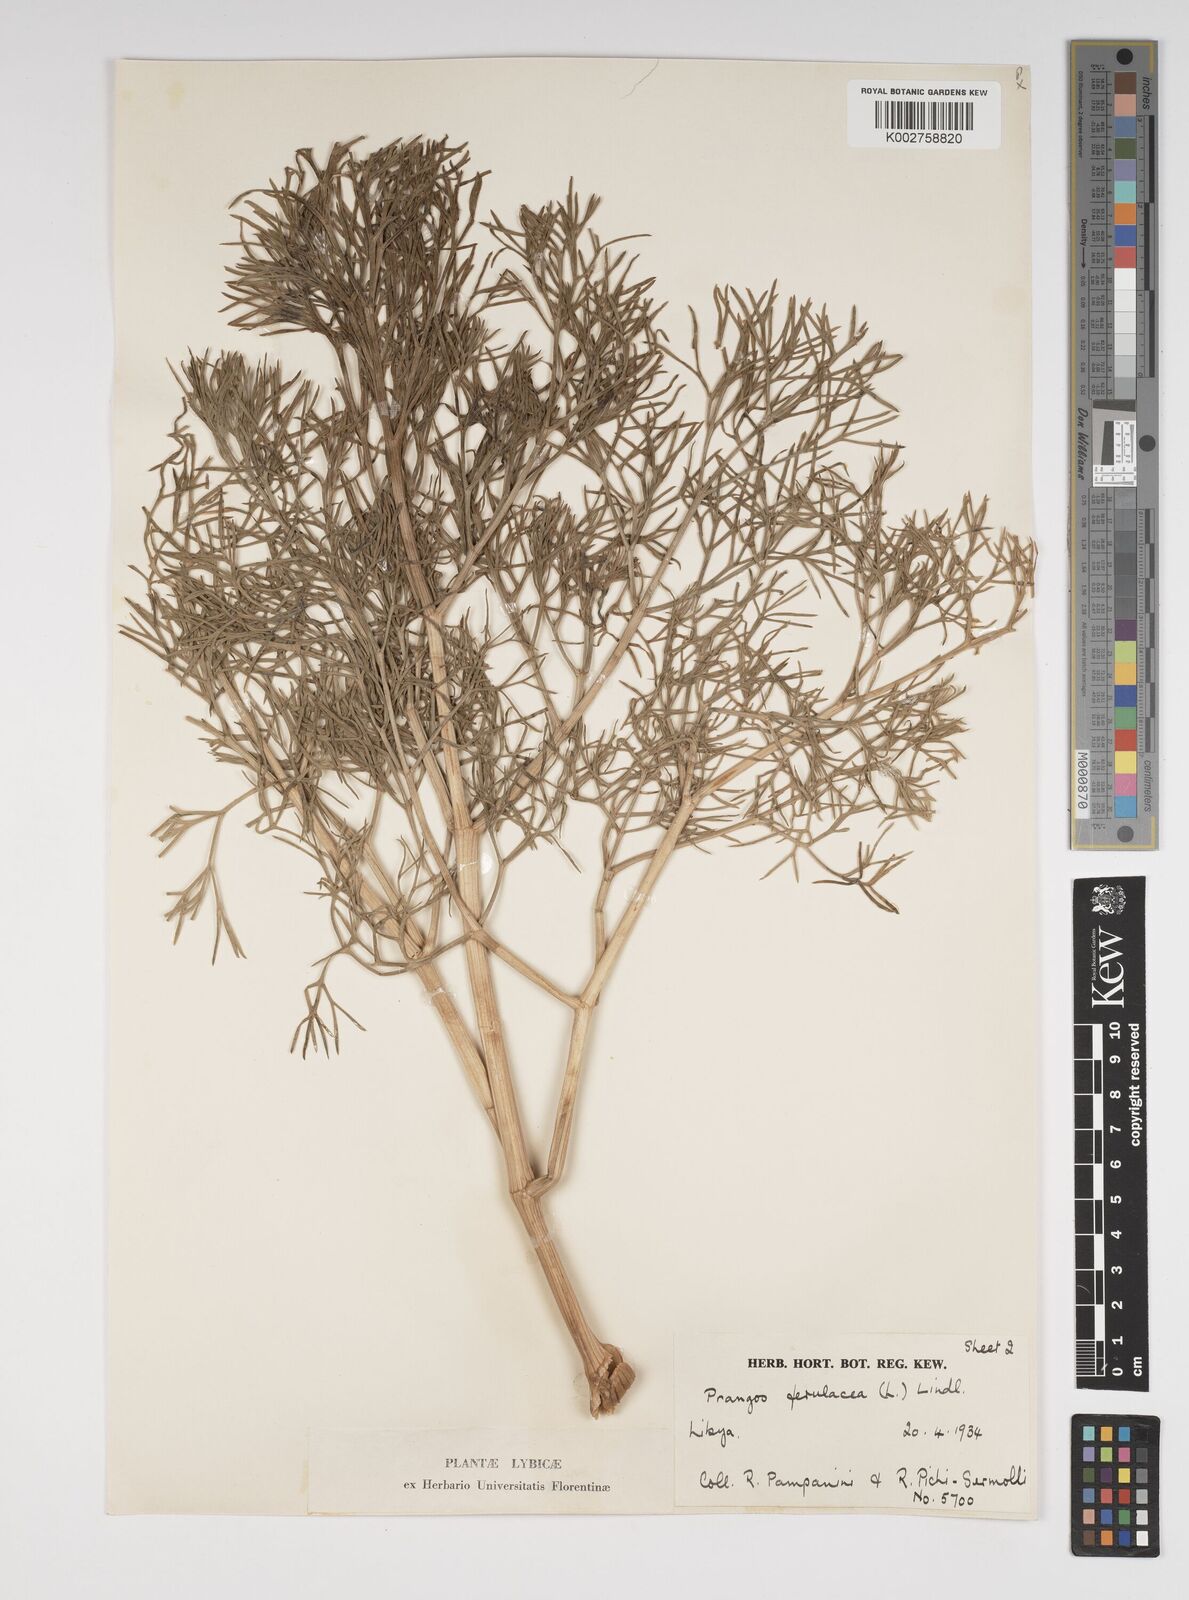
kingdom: Plantae
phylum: Tracheophyta
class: Magnoliopsida
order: Apiales
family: Apiaceae
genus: Prangos
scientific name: Prangos ferulacea
